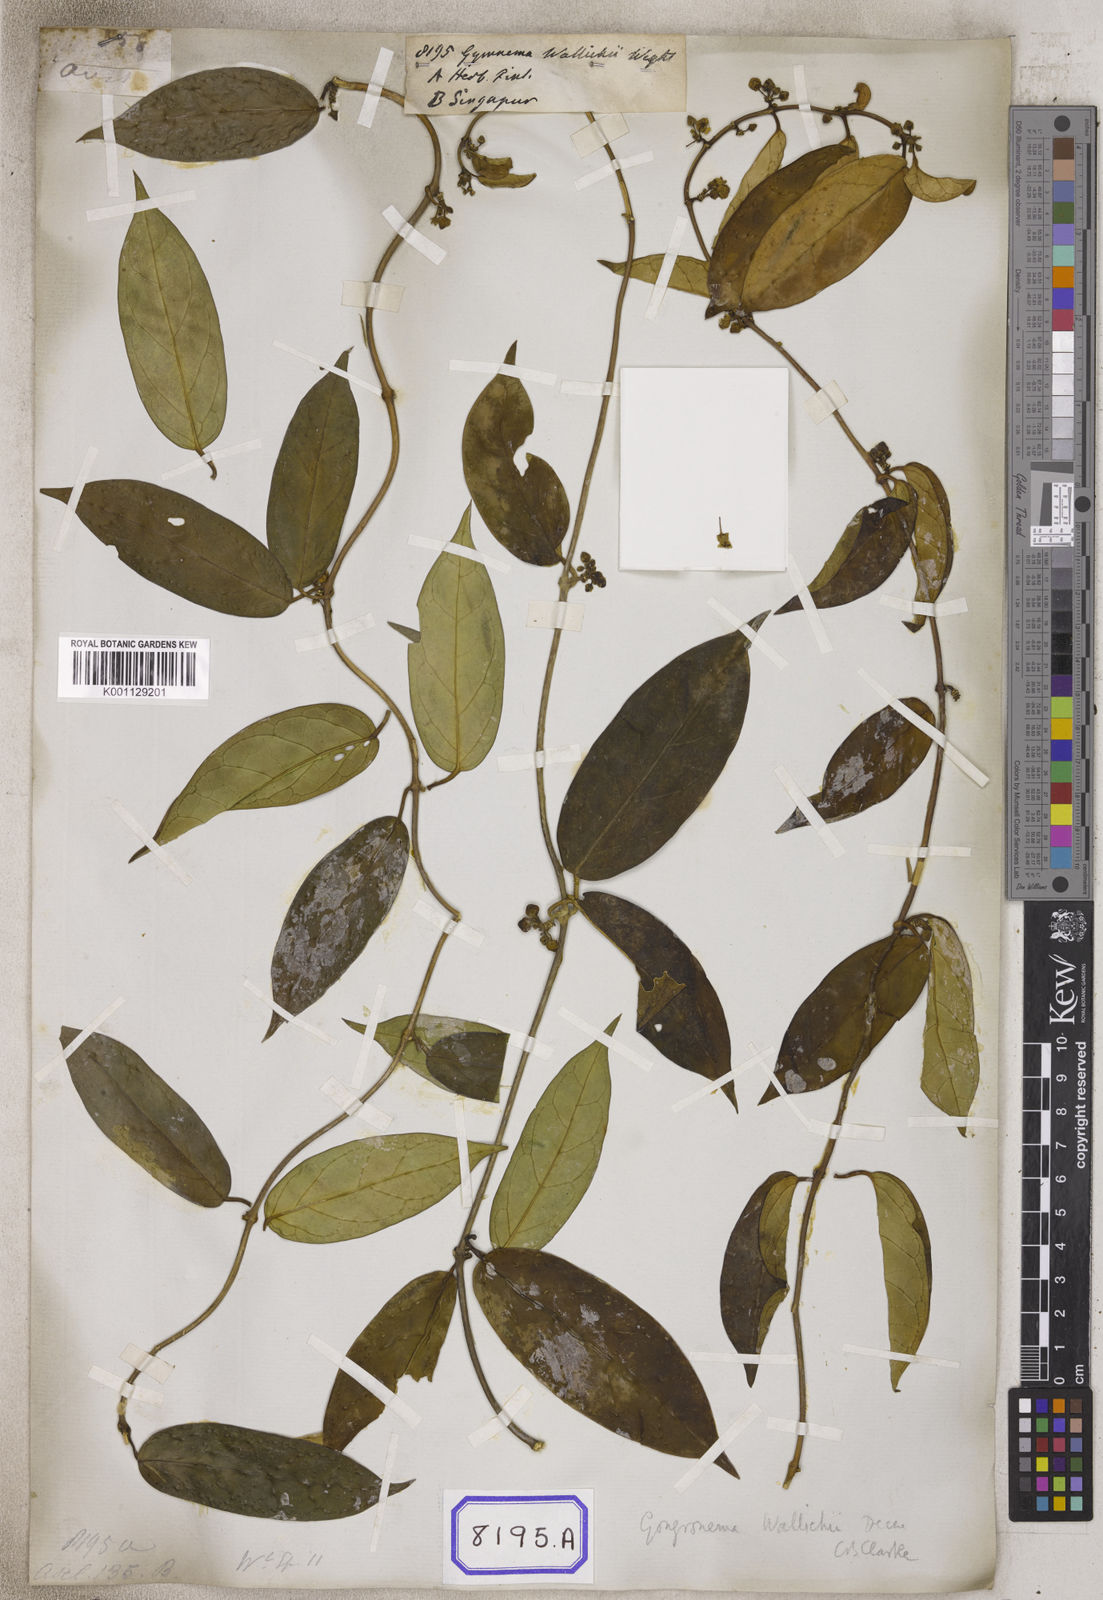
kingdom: Plantae
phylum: Tracheophyta
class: Magnoliopsida
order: Gentianales
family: Apocynaceae
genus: Vincetoxicum
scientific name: Vincetoxicum ventricosum
